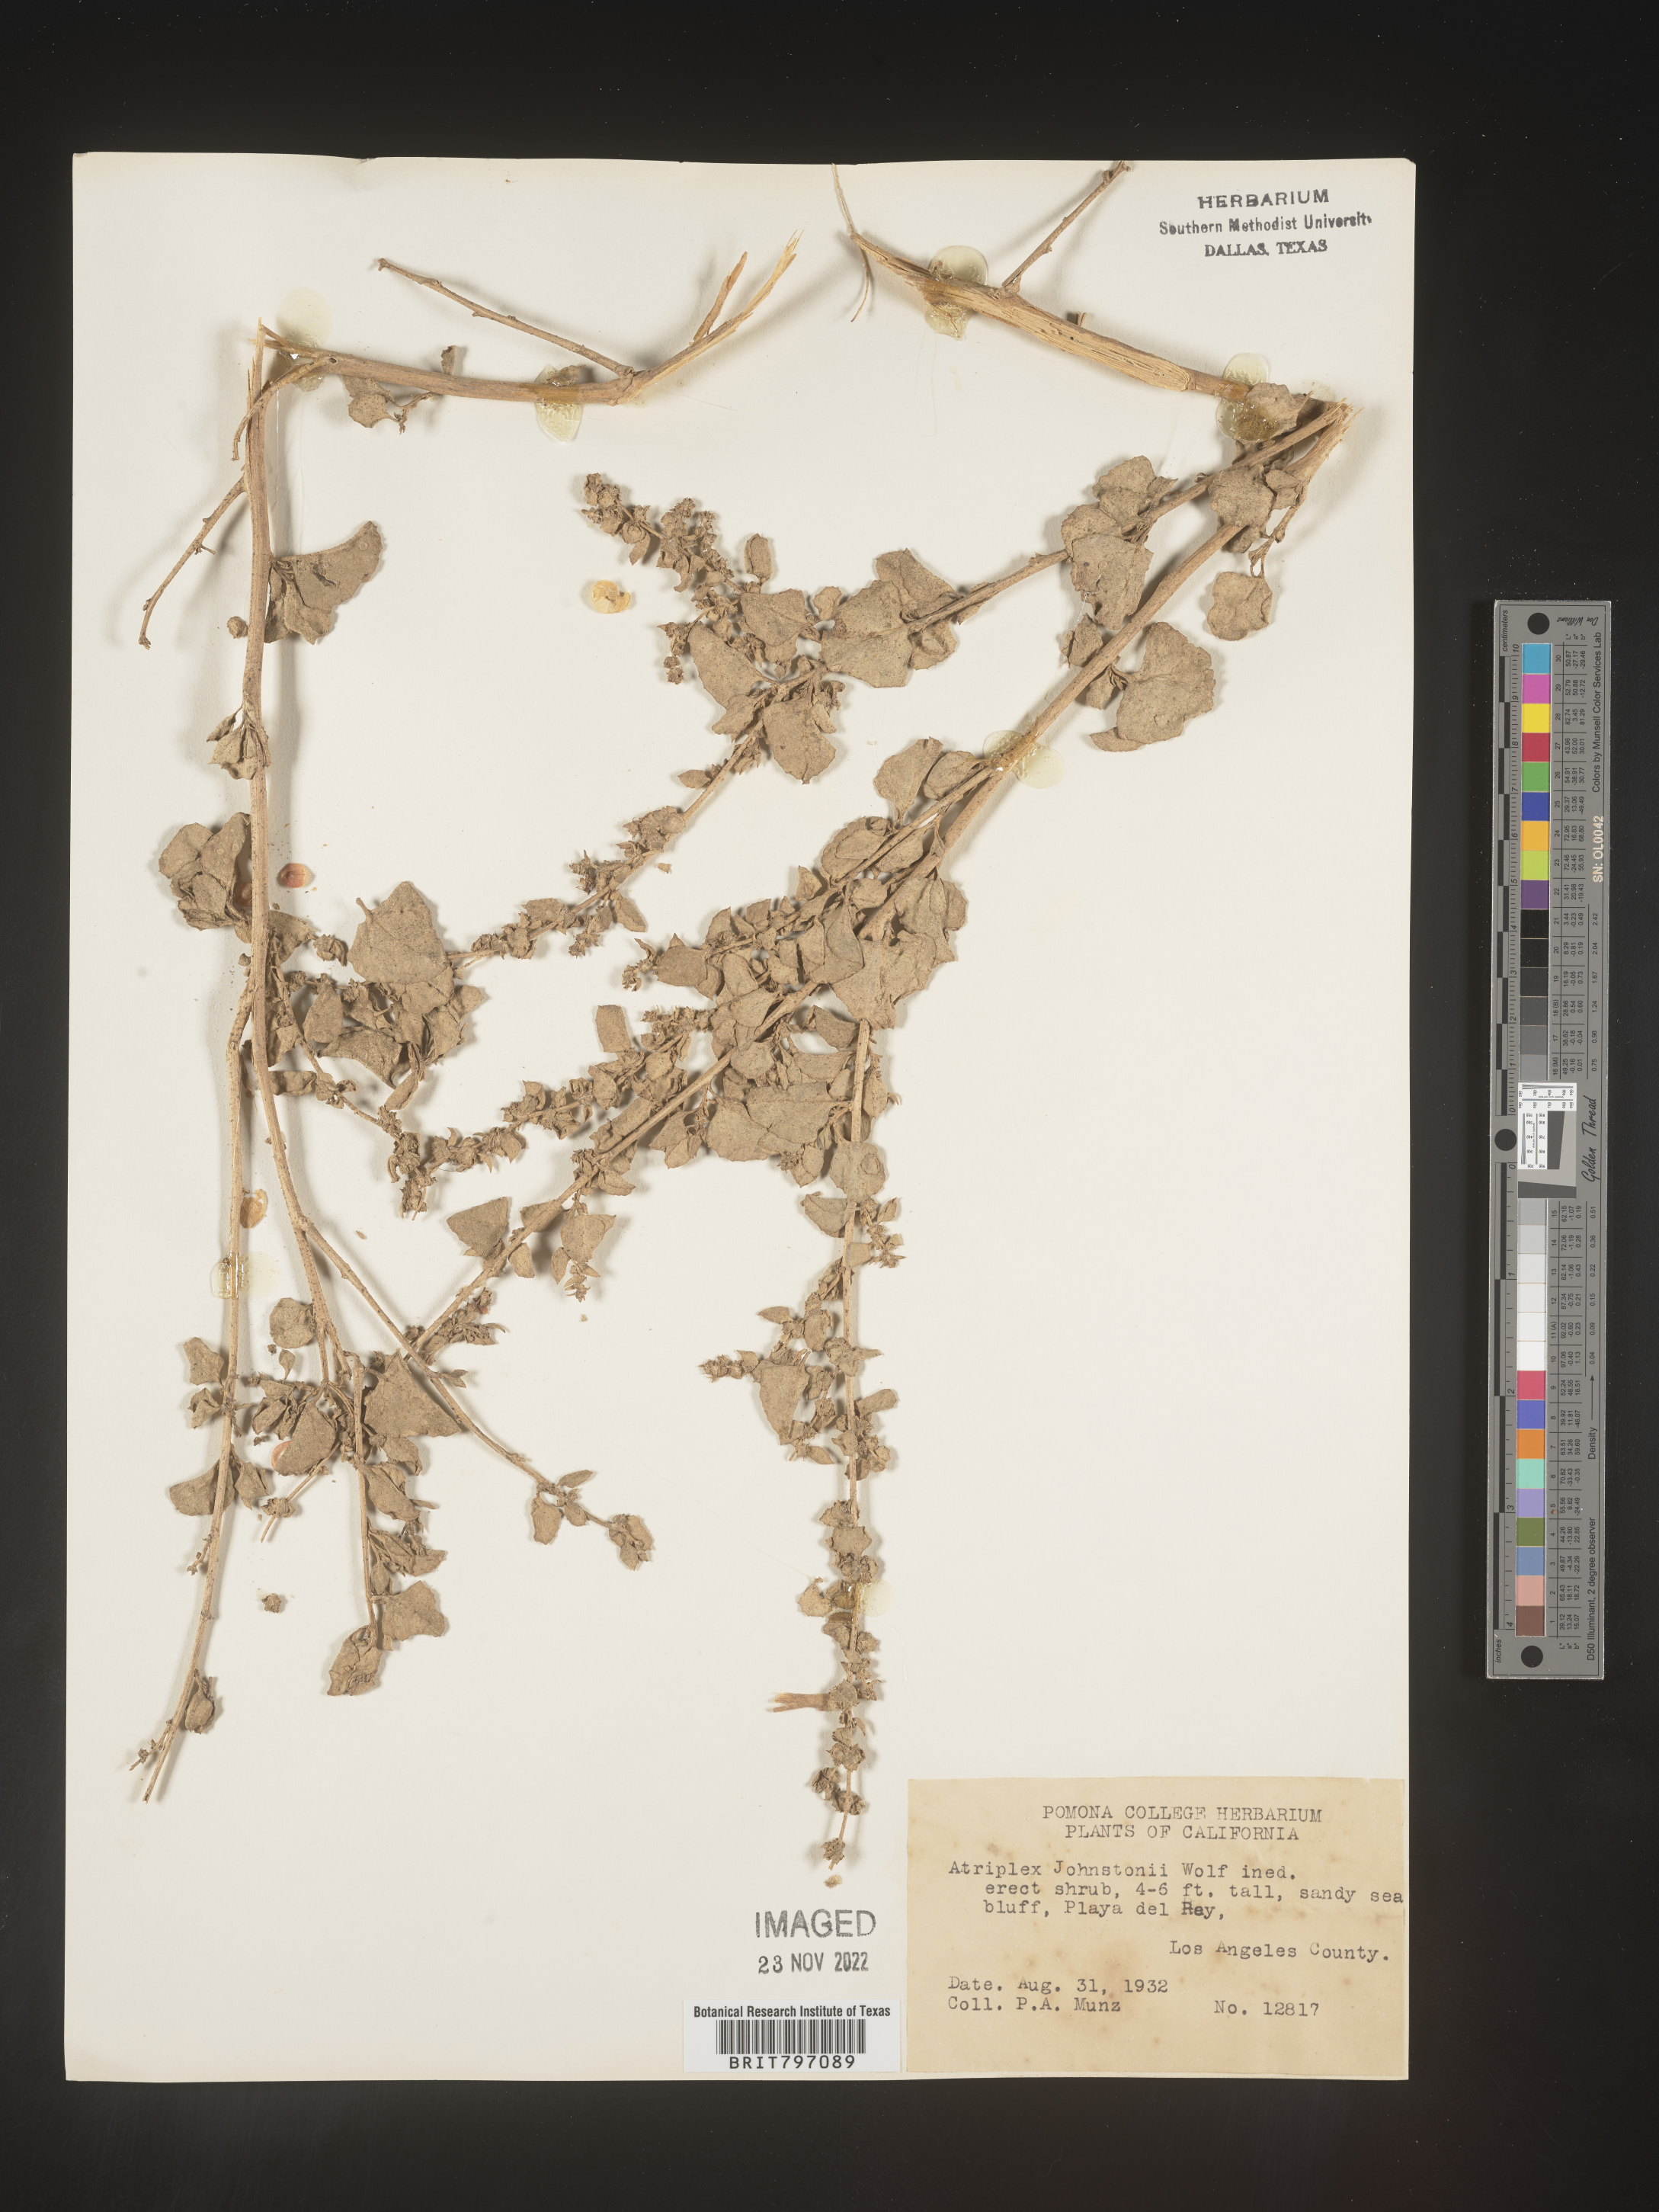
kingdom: Plantae
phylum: Tracheophyta
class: Magnoliopsida
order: Caryophyllales
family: Amaranthaceae
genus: Atriplex
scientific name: Atriplex
